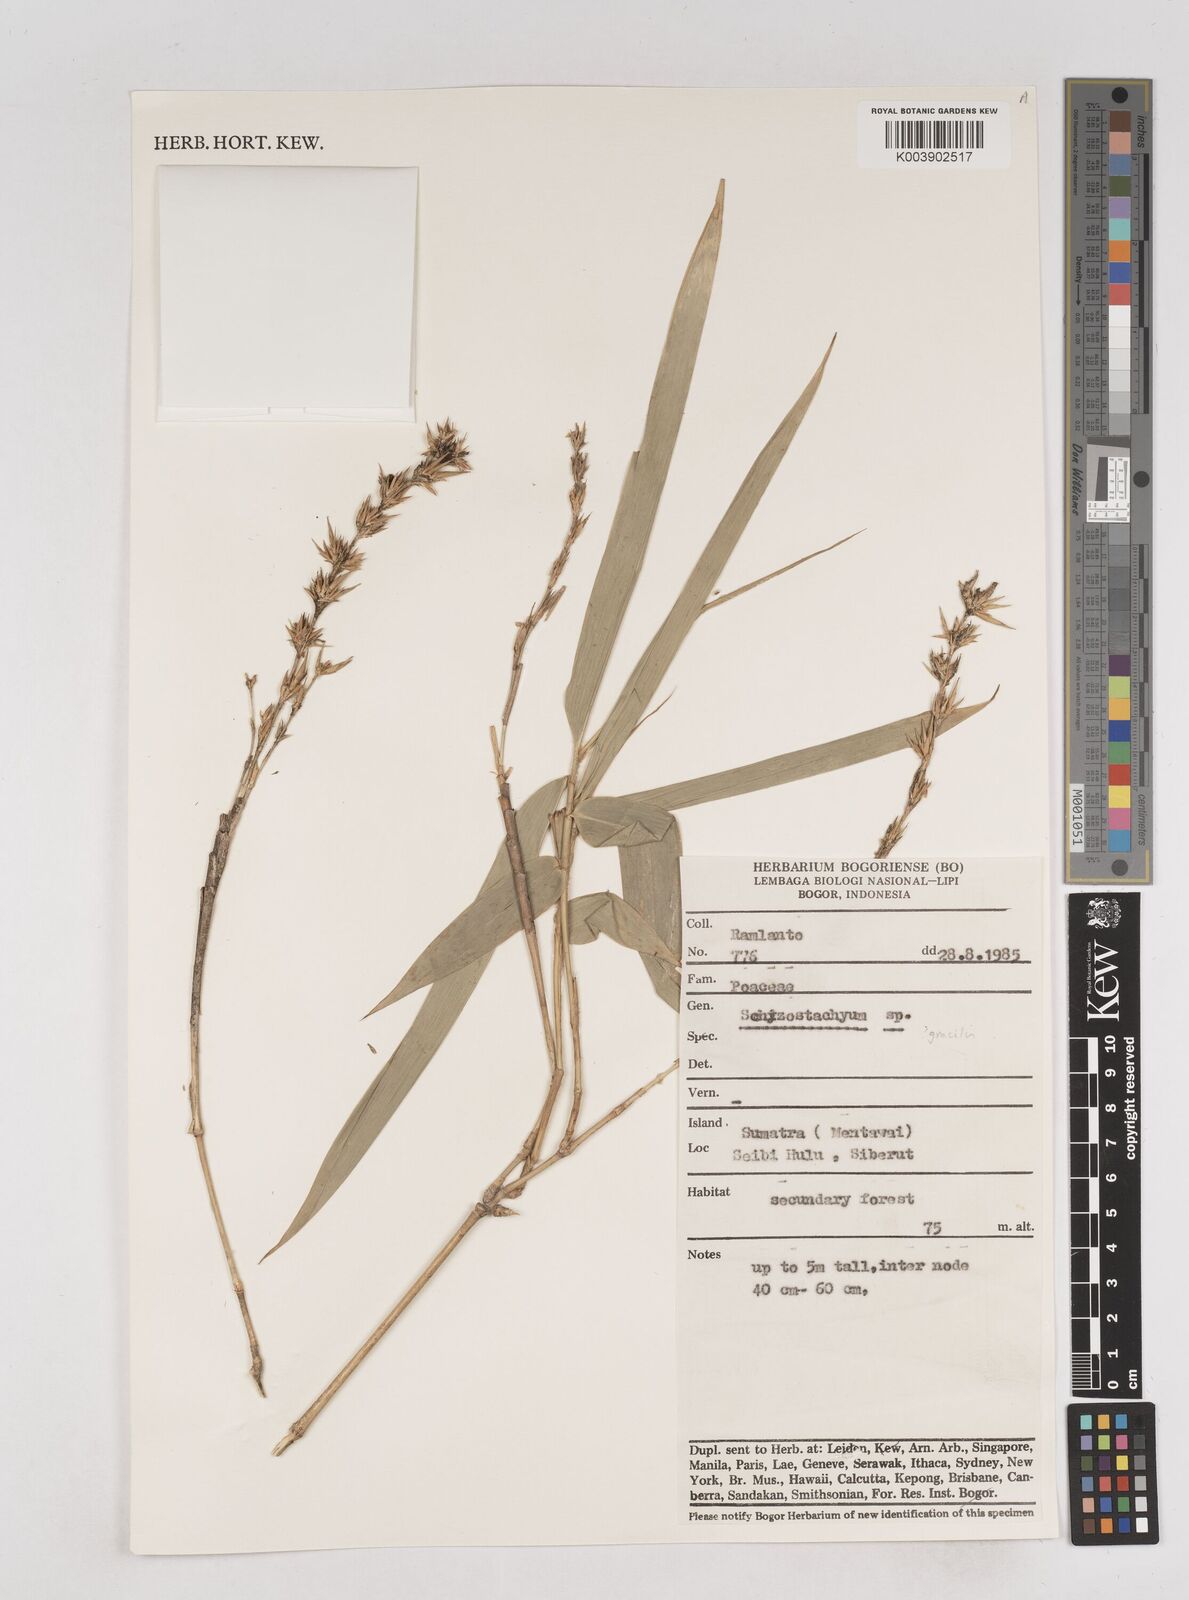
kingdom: Plantae
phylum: Tracheophyta
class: Liliopsida
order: Poales
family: Poaceae
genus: Schizostachyum
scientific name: Schizostachyum
